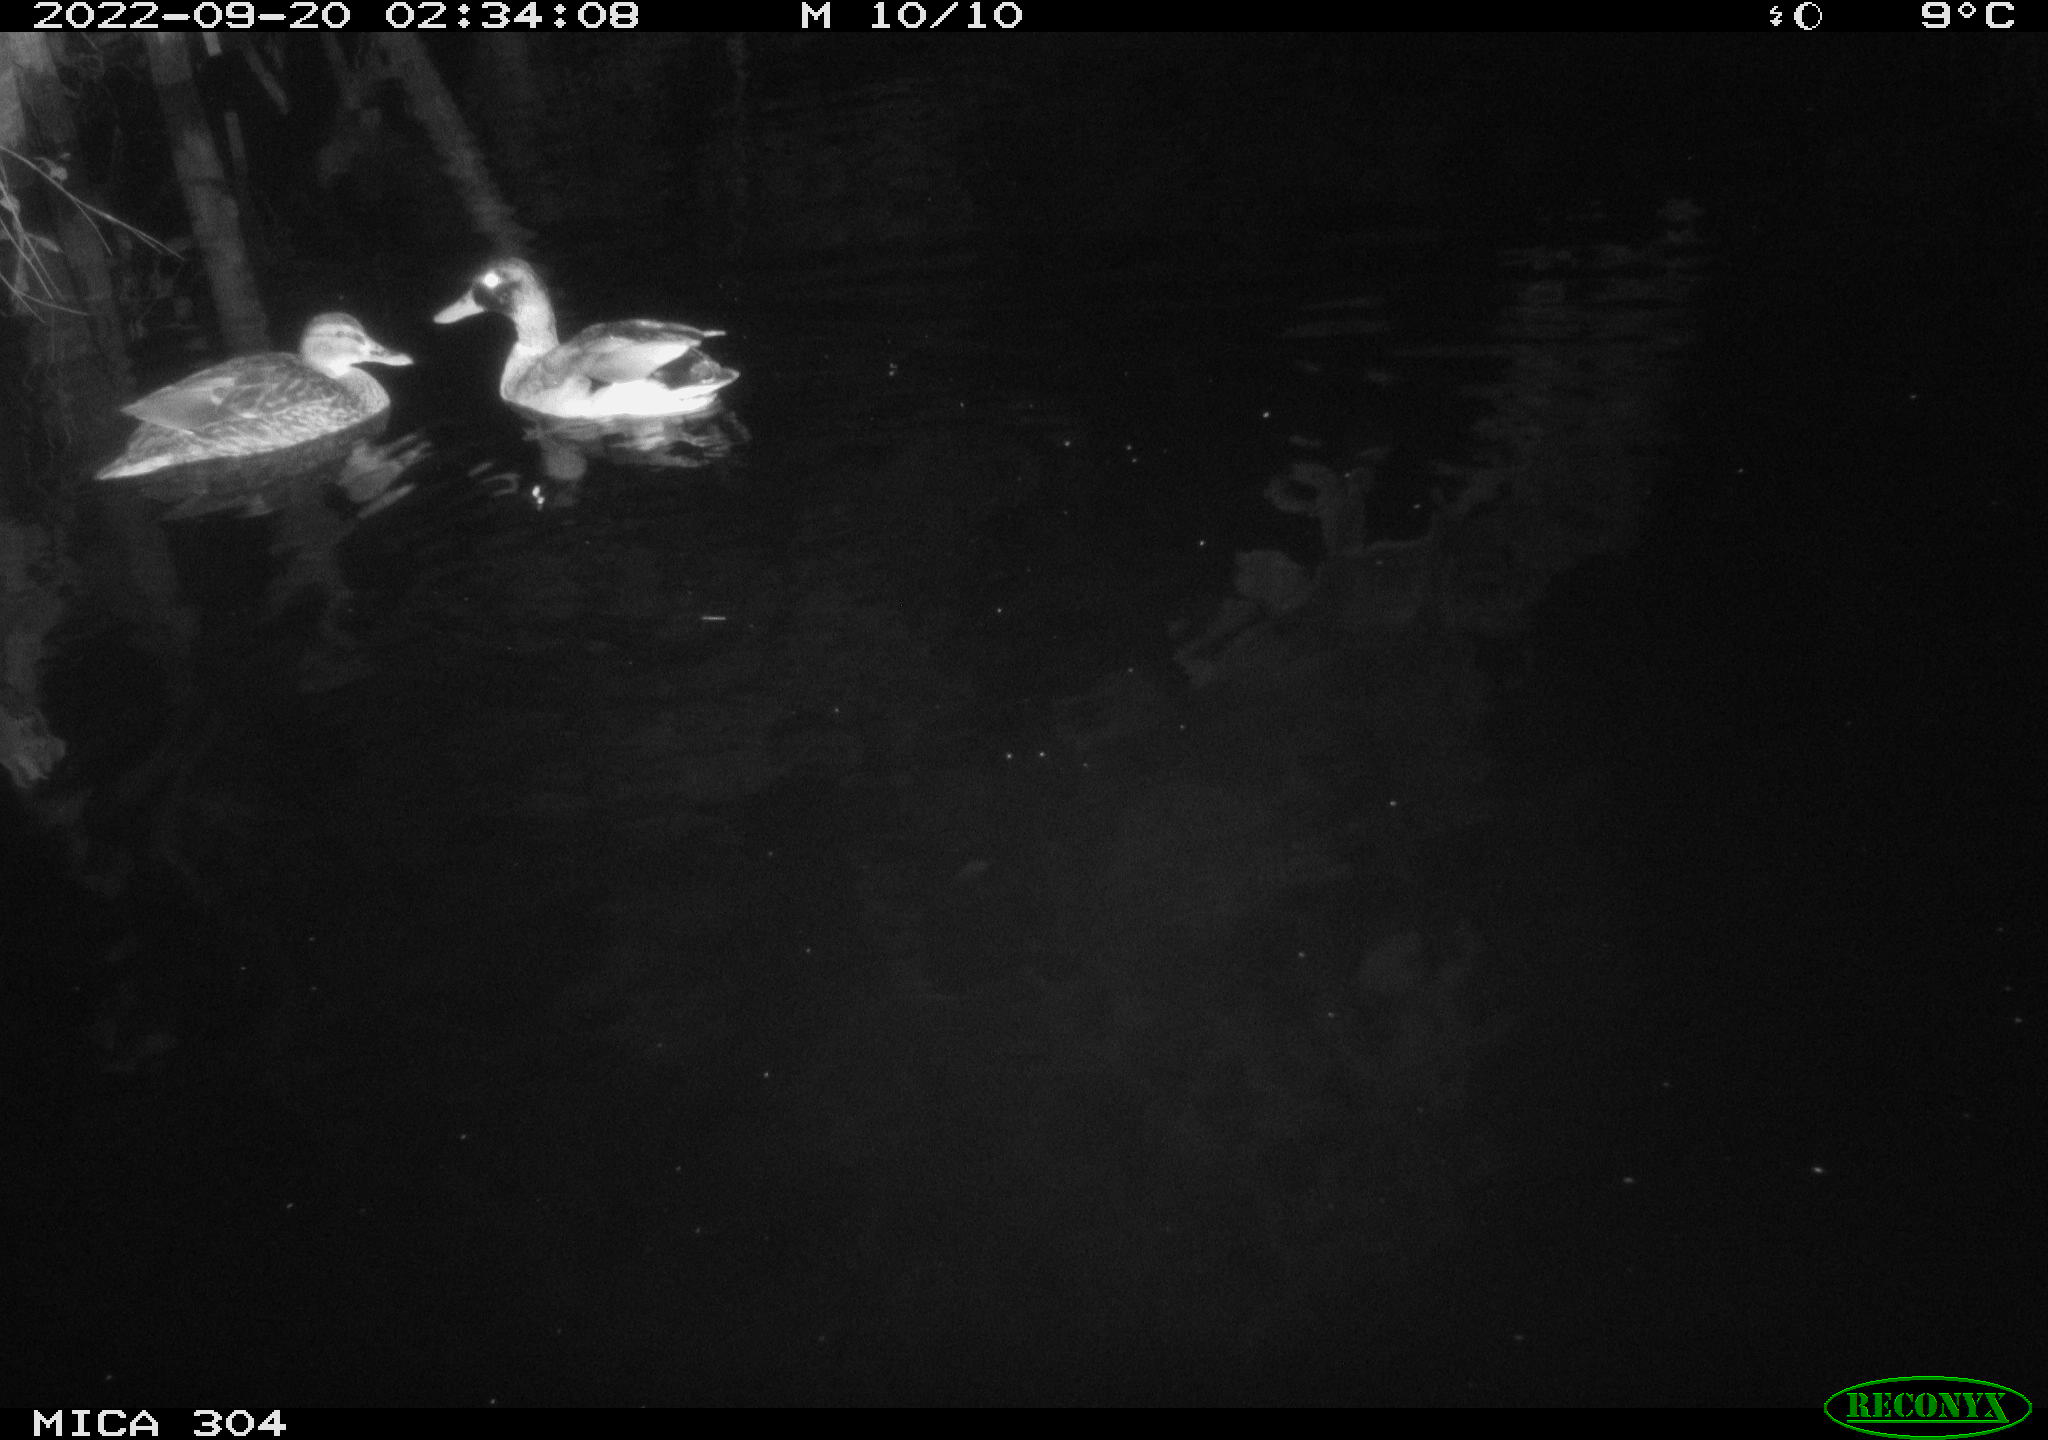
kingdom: Animalia
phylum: Chordata
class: Aves
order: Anseriformes
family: Anatidae
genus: Anas
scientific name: Anas
